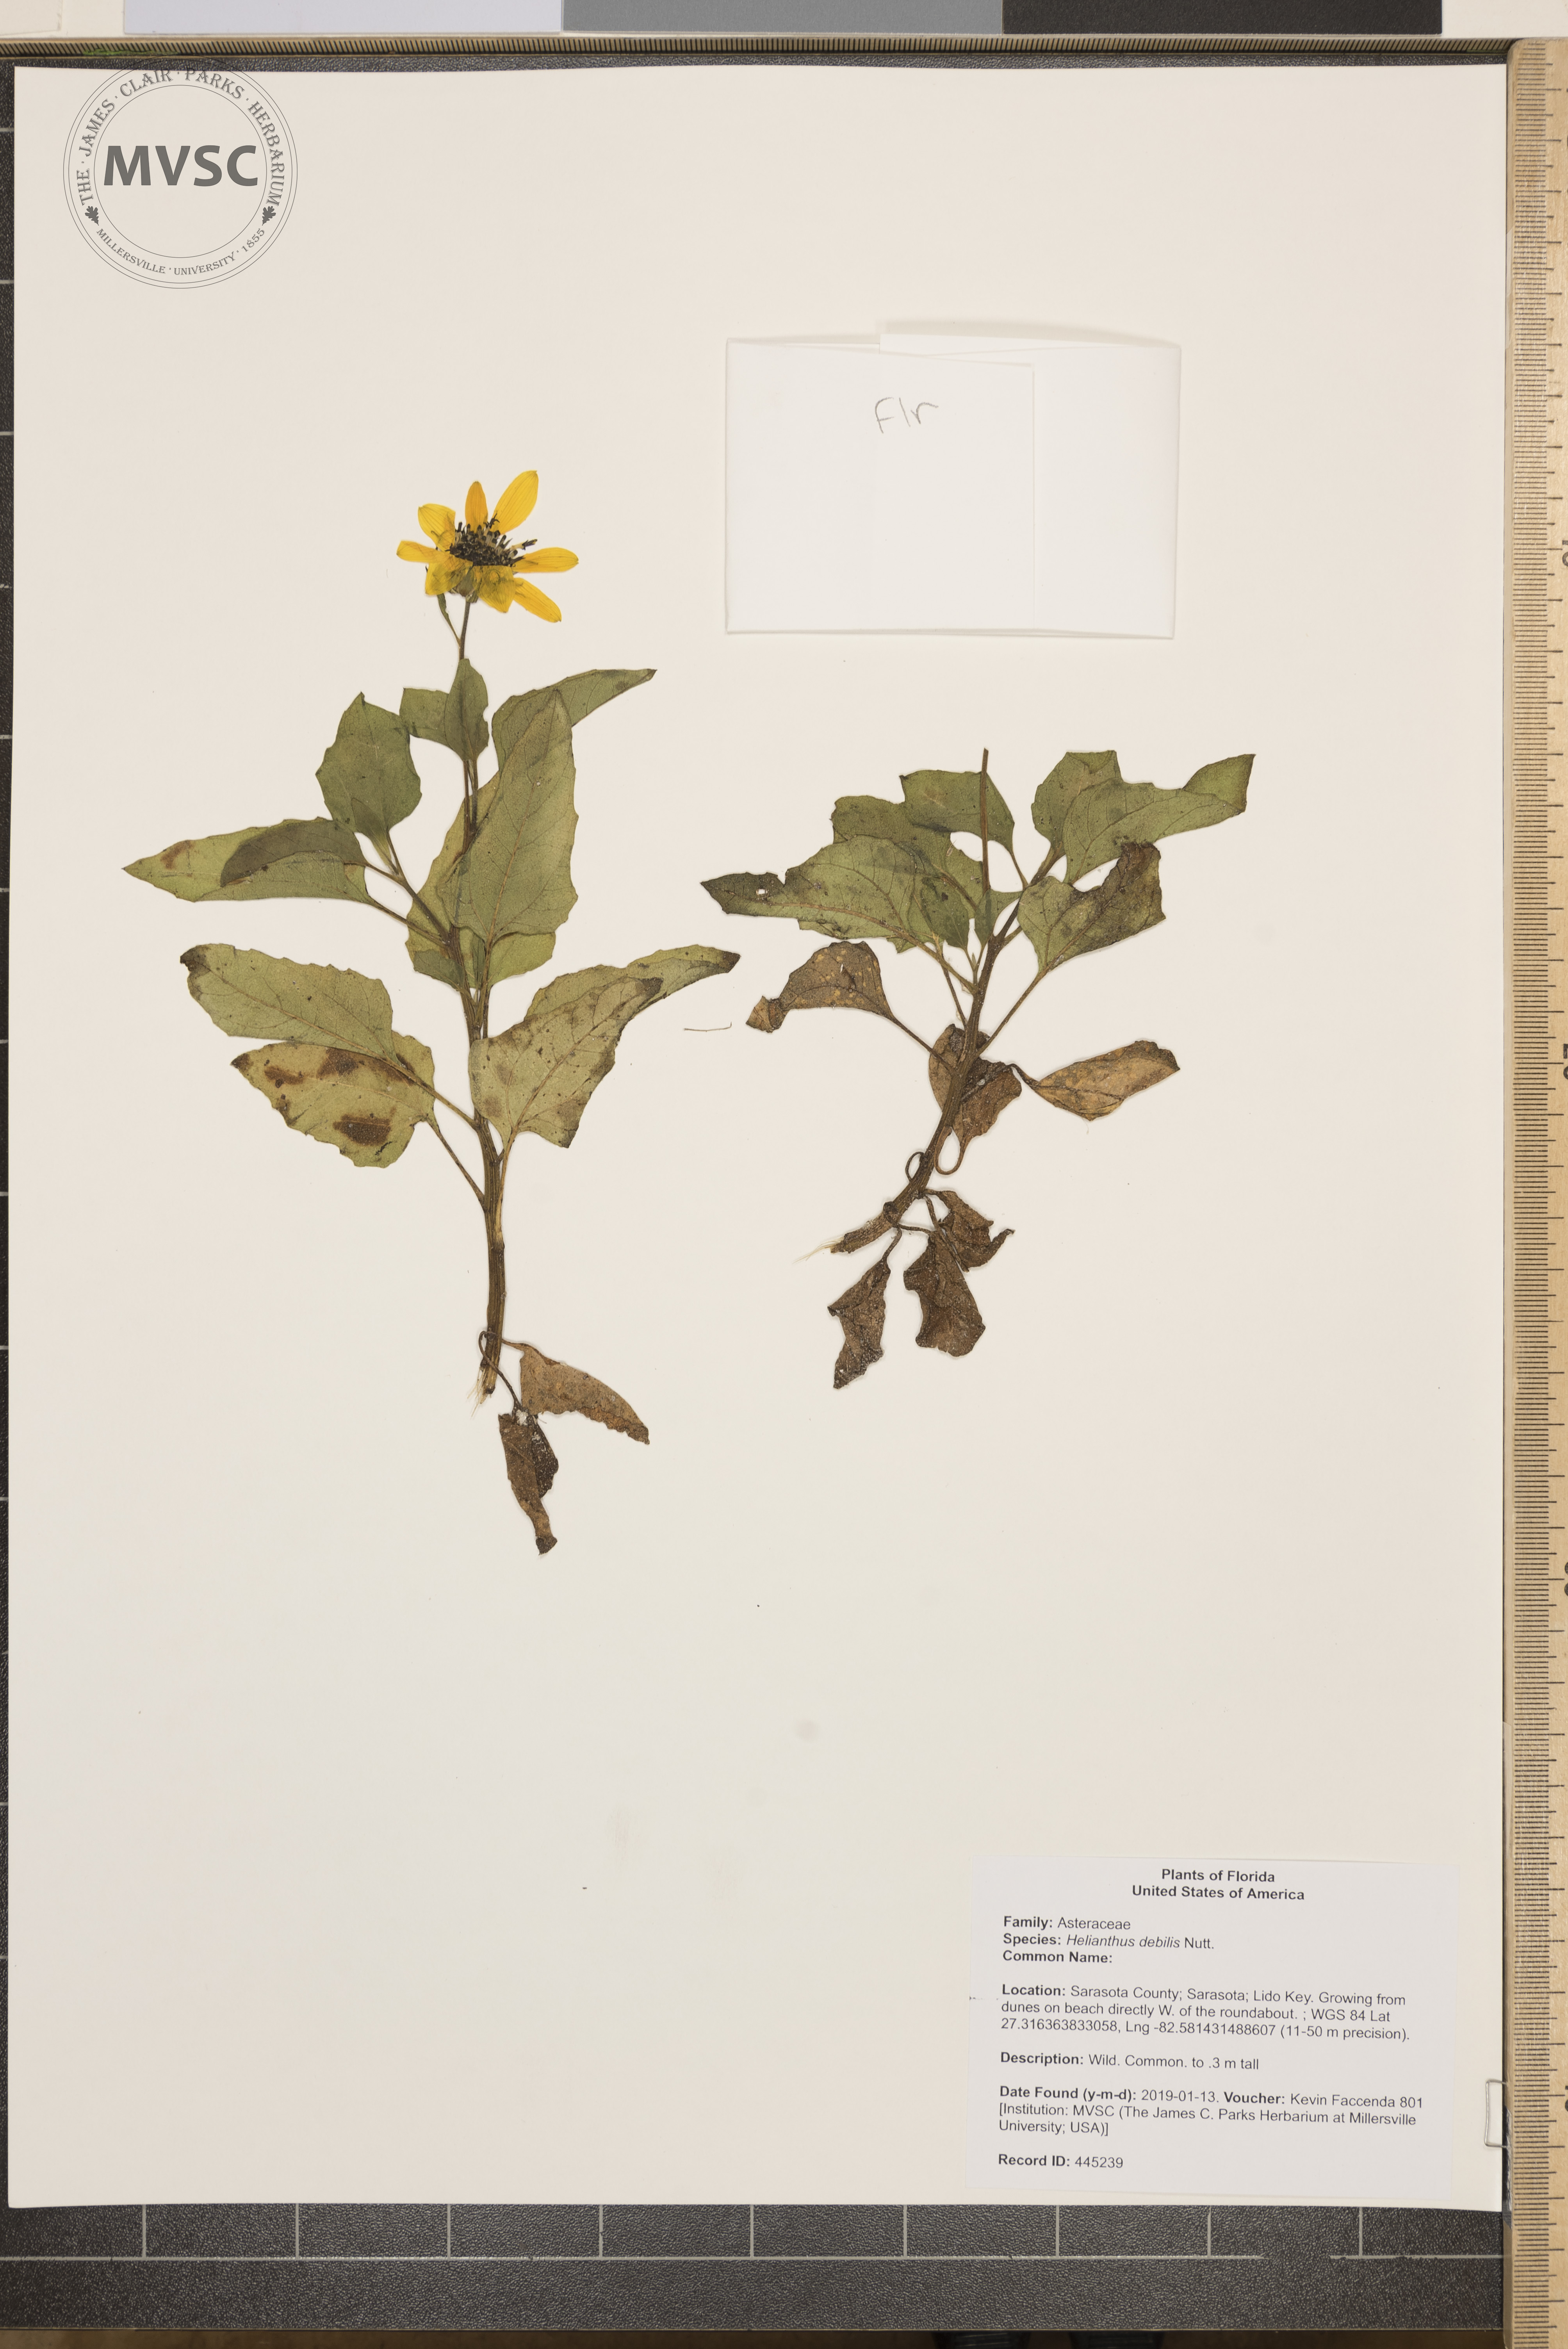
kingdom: Plantae
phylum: Tracheophyta
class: Magnoliopsida
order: Asterales
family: Asteraceae
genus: Helianthus
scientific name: Helianthus debilis
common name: Weak sunflower
